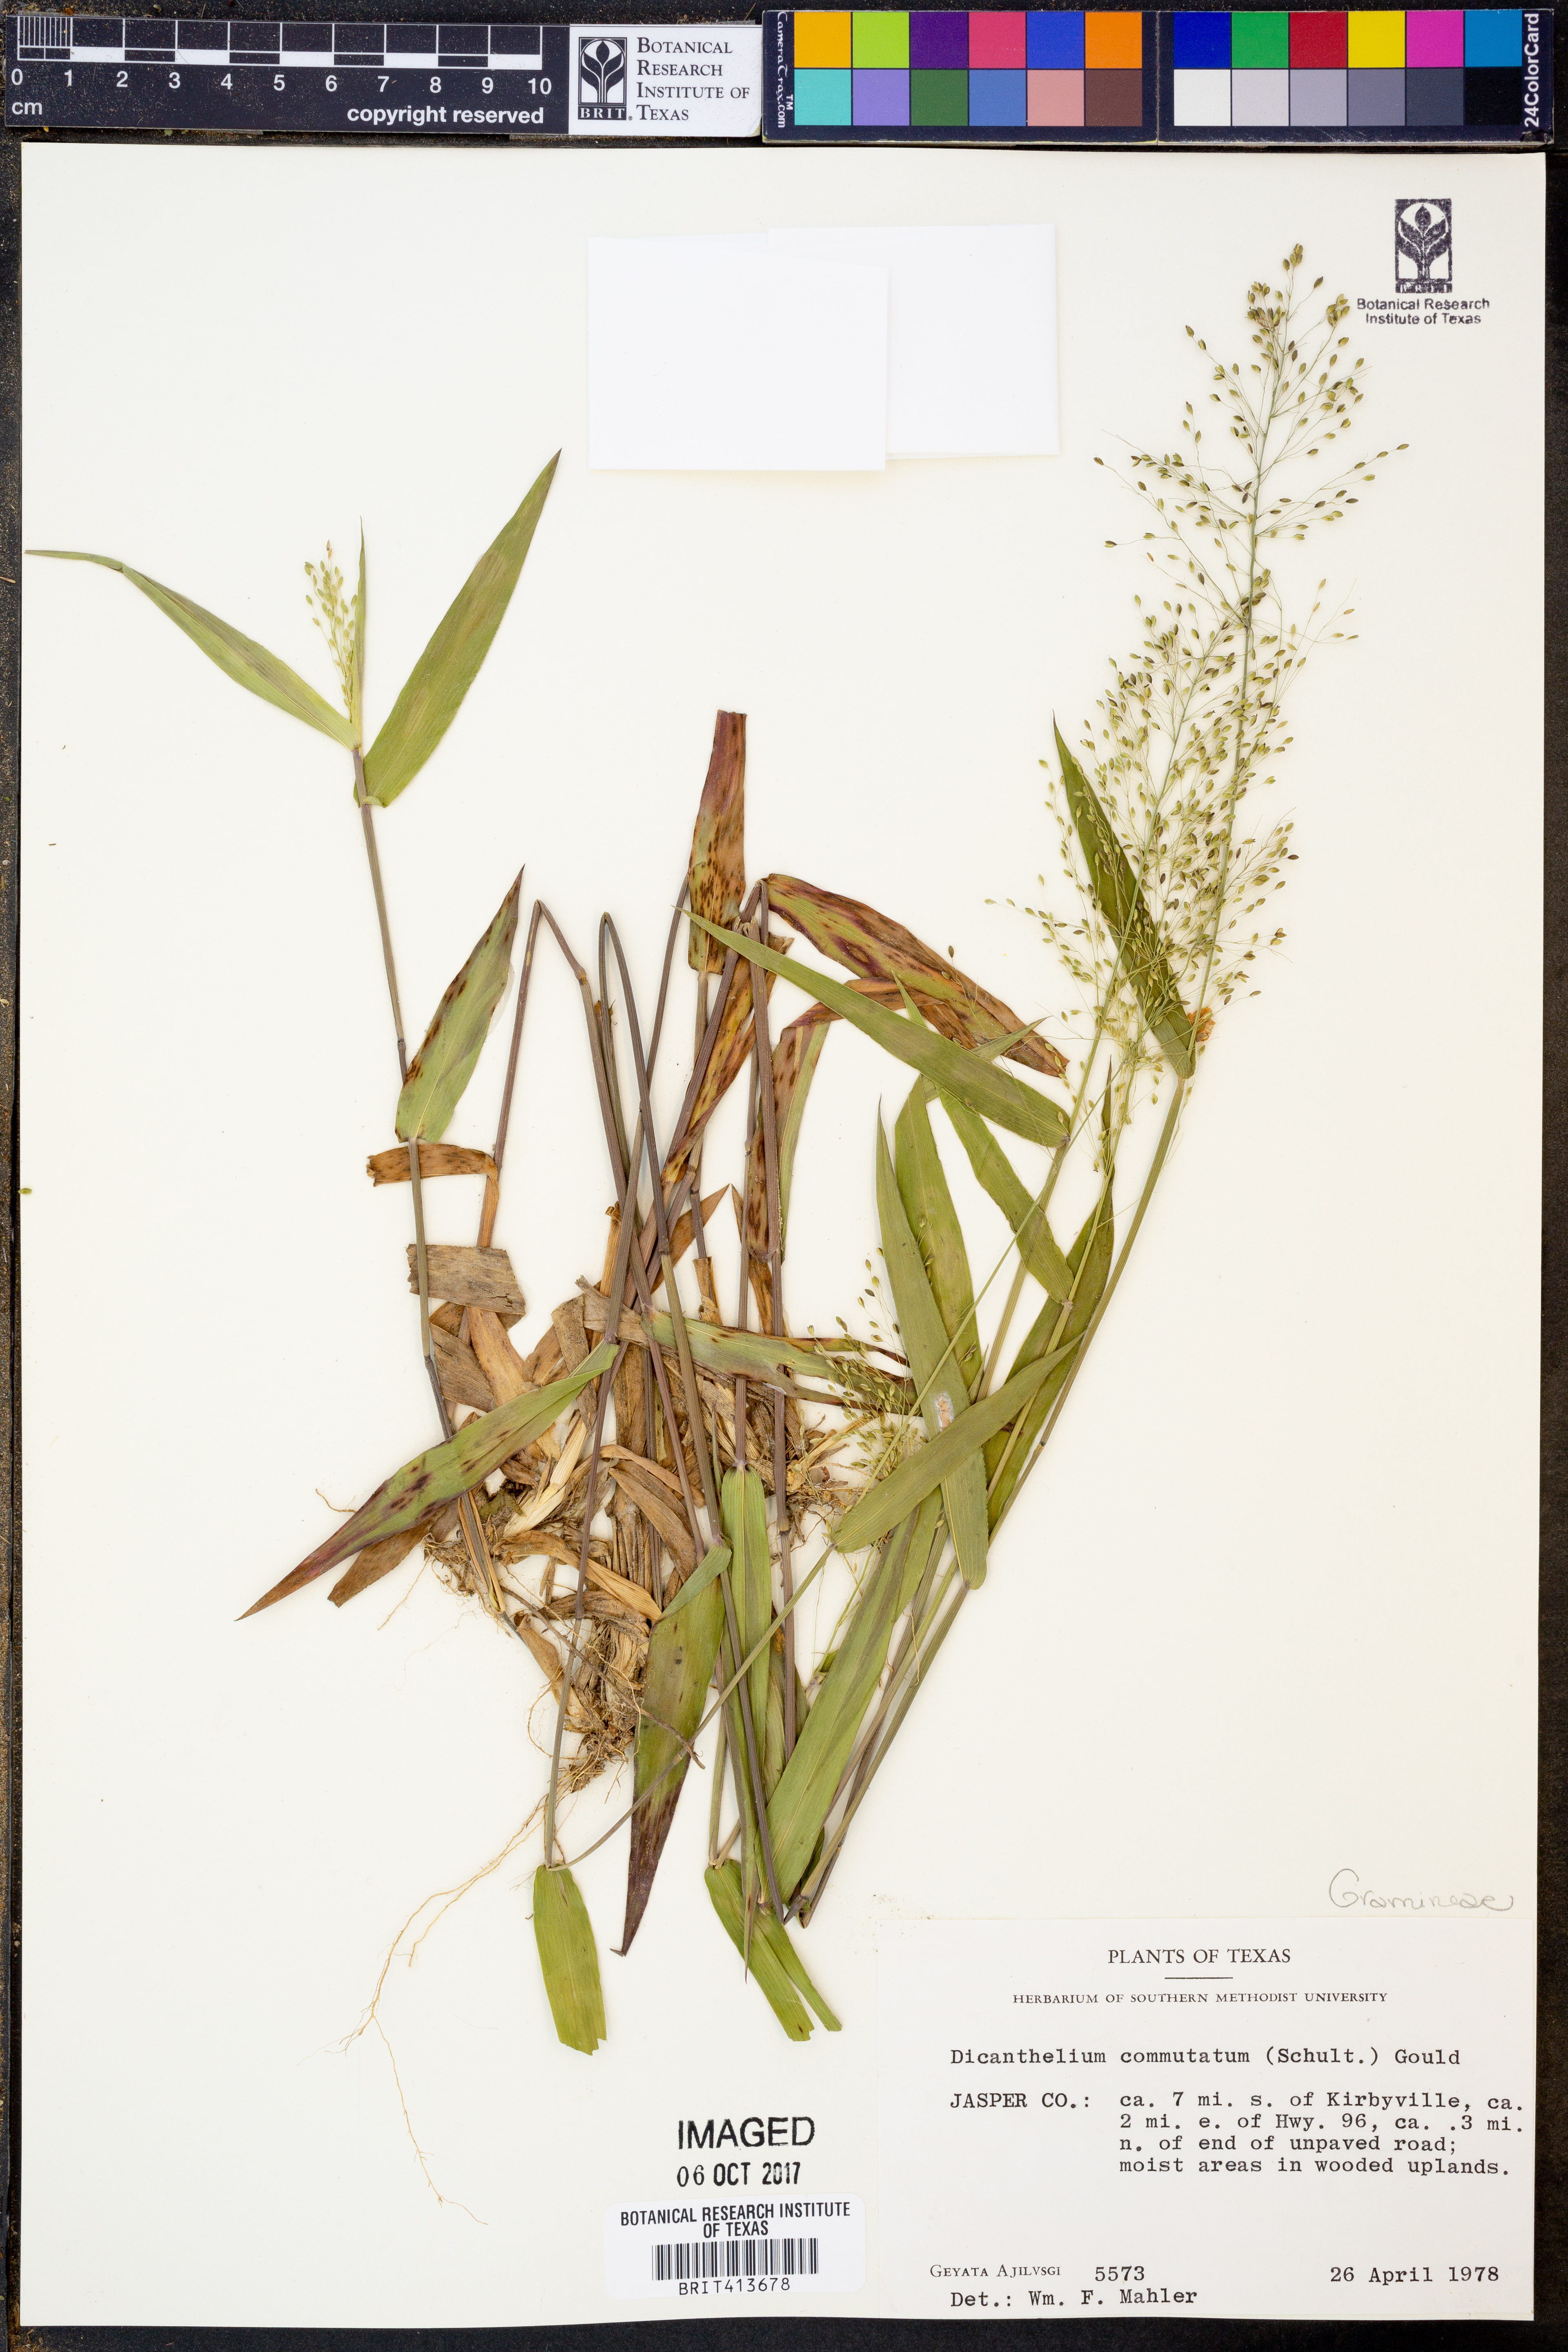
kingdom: Plantae
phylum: Tracheophyta
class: Liliopsida
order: Poales
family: Poaceae
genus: Dichanthelium
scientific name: Dichanthelium commutatum
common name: Variable witchgrass
